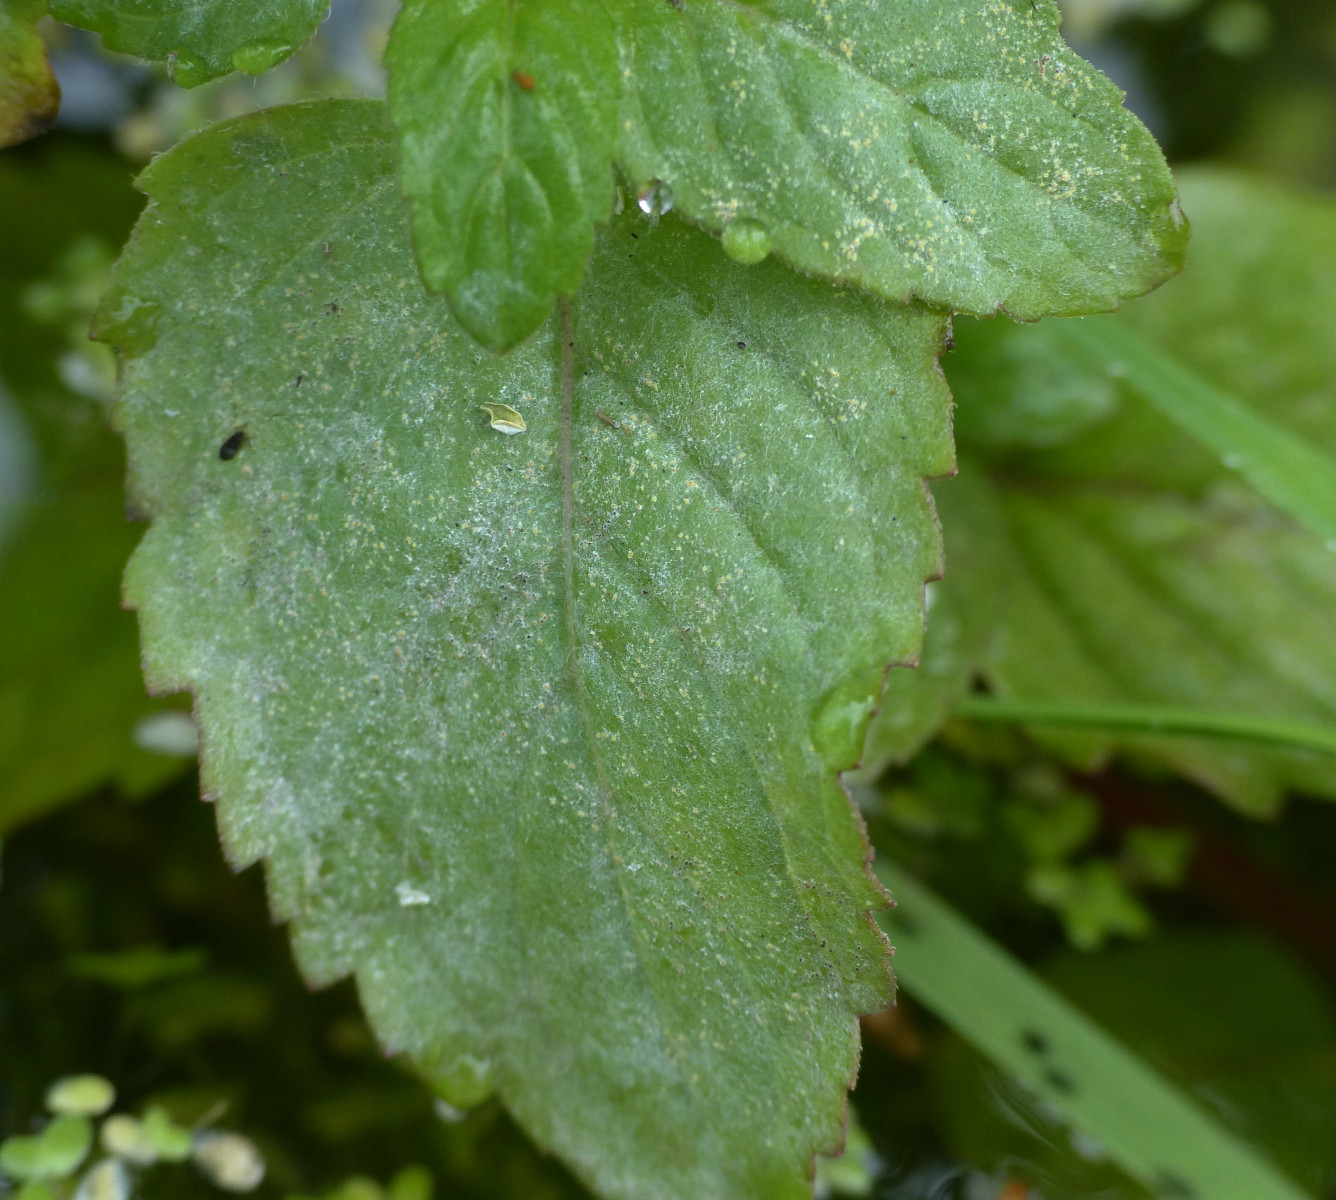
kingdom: Fungi
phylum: Ascomycota
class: Leotiomycetes
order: Helotiales
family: Erysiphaceae
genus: Golovinomyces
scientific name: Golovinomyces monardae
